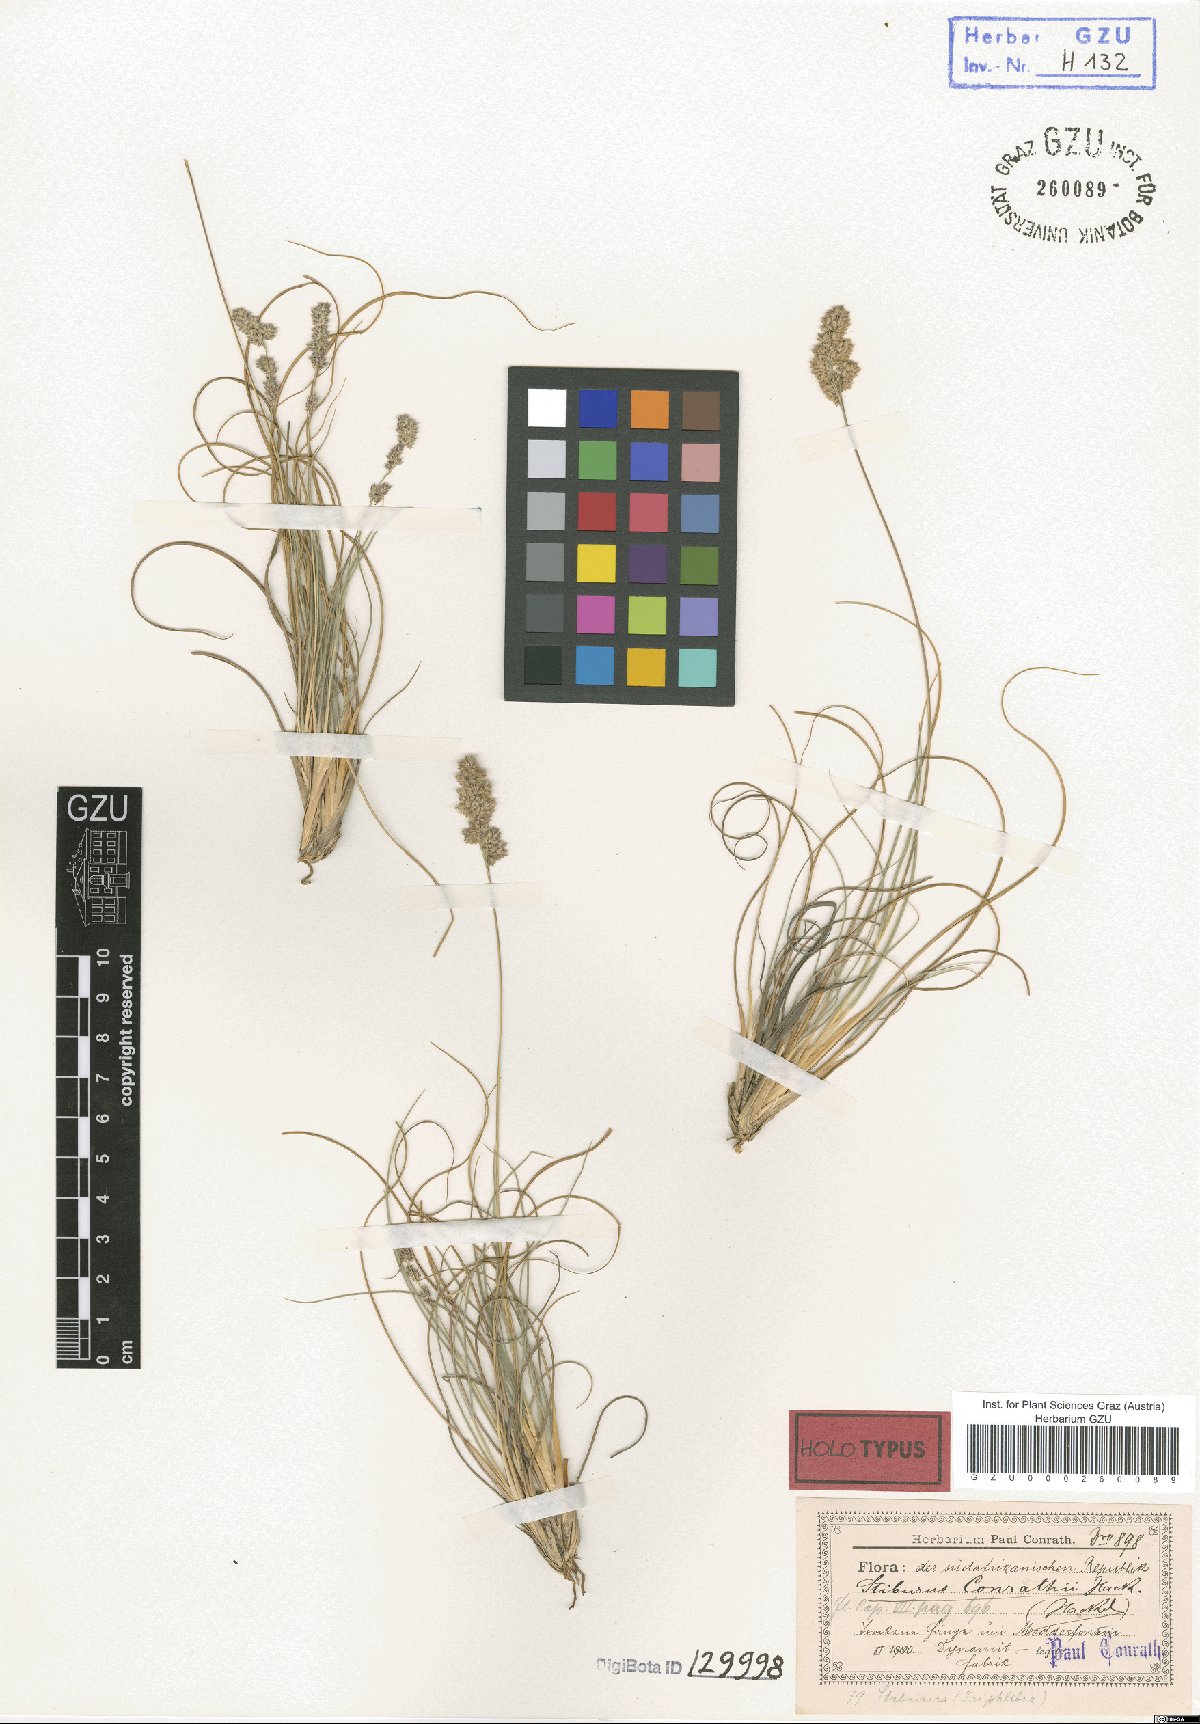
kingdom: Plantae
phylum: Tracheophyta
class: Liliopsida
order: Poales
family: Poaceae
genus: Stiburus
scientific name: Stiburus conrathii
